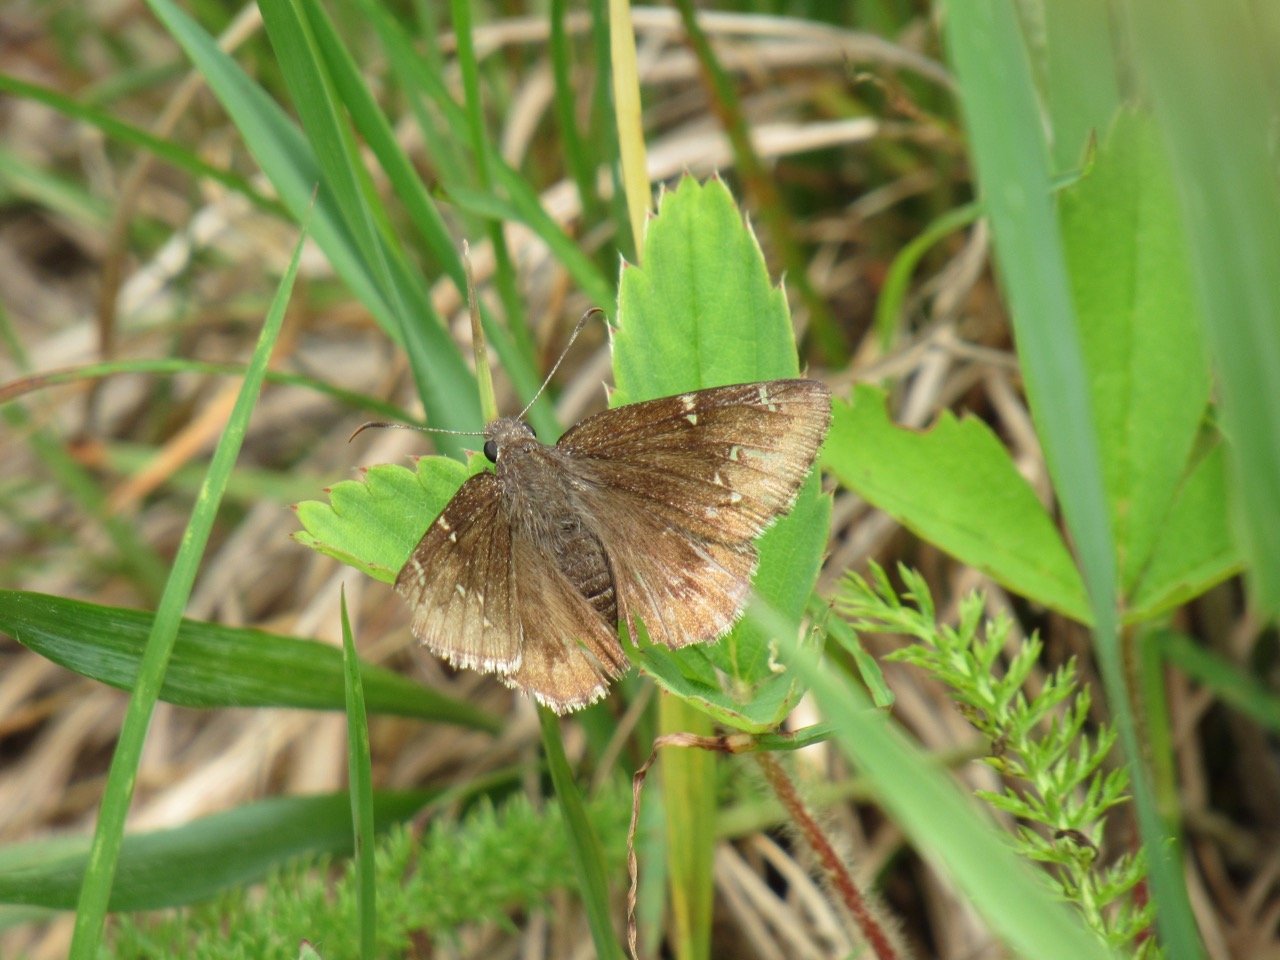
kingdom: Animalia
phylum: Arthropoda
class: Insecta
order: Lepidoptera
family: Hesperiidae
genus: Autochton
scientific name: Autochton
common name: Northern Cloudywing
